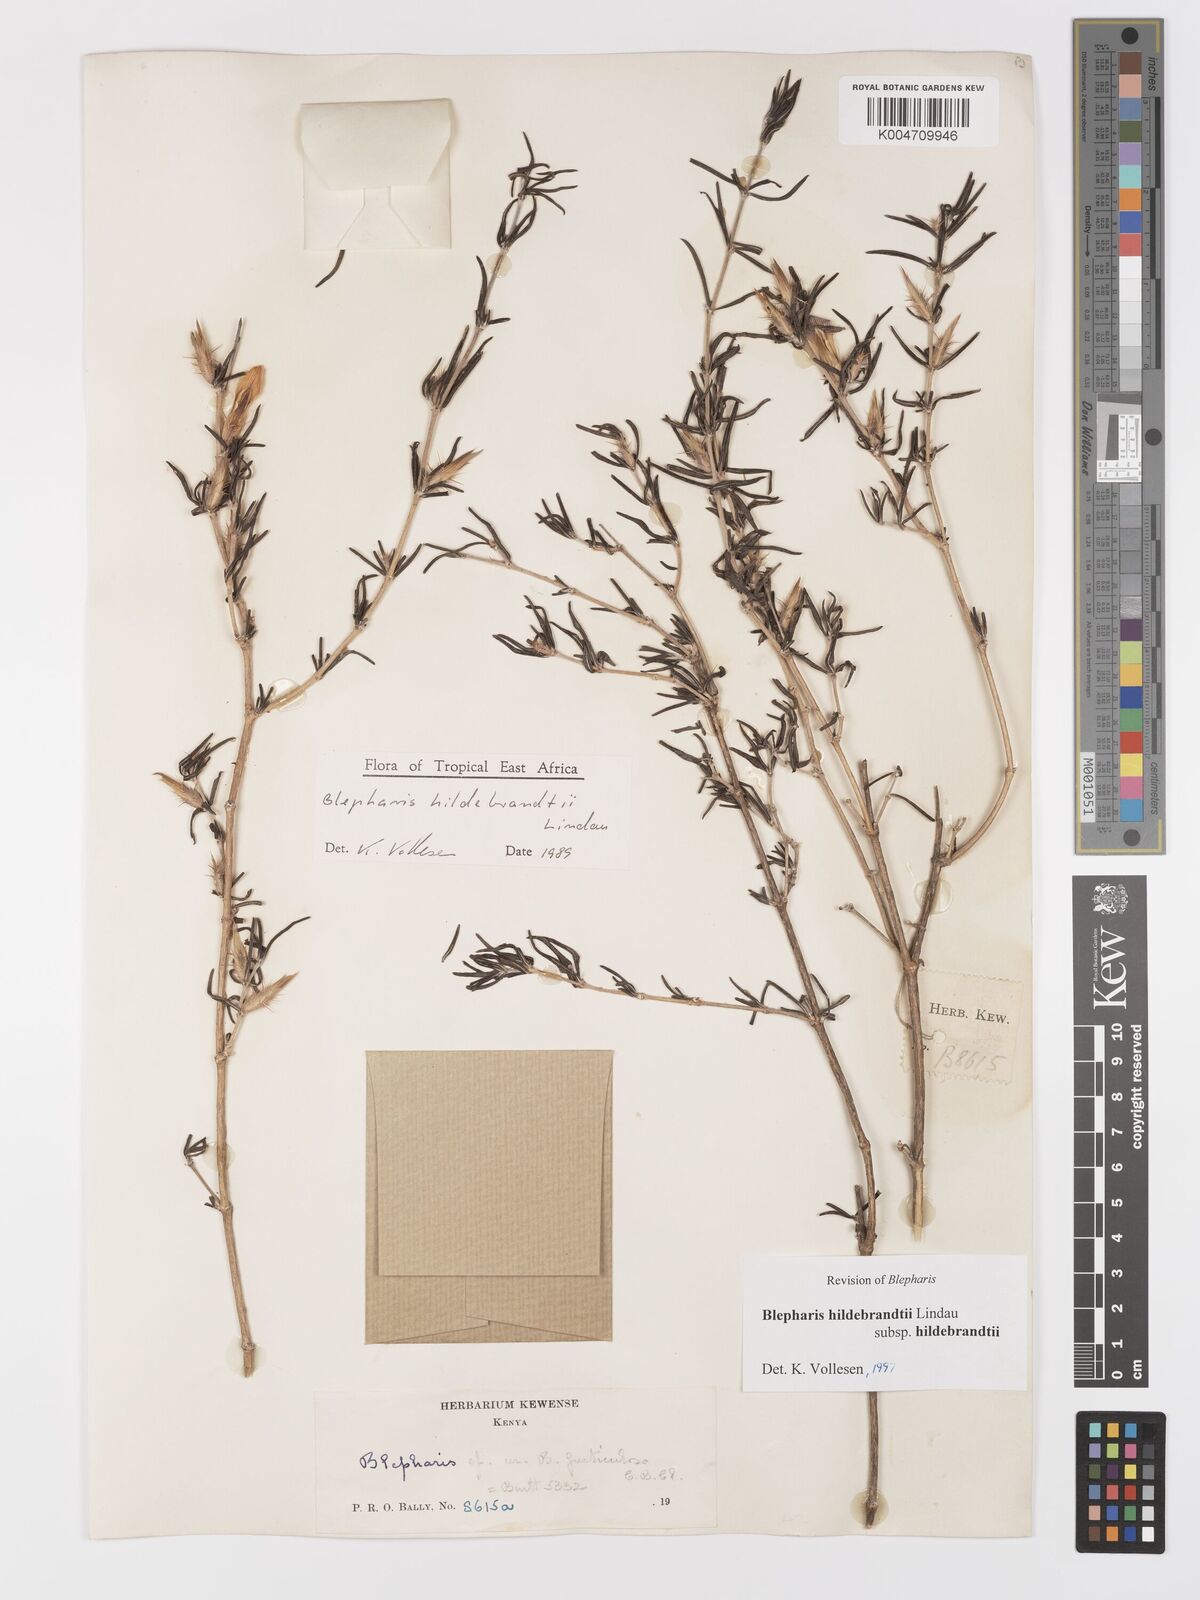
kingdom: Plantae
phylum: Tracheophyta
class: Magnoliopsida
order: Lamiales
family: Acanthaceae
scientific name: Acanthaceae
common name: Acanthaceae
